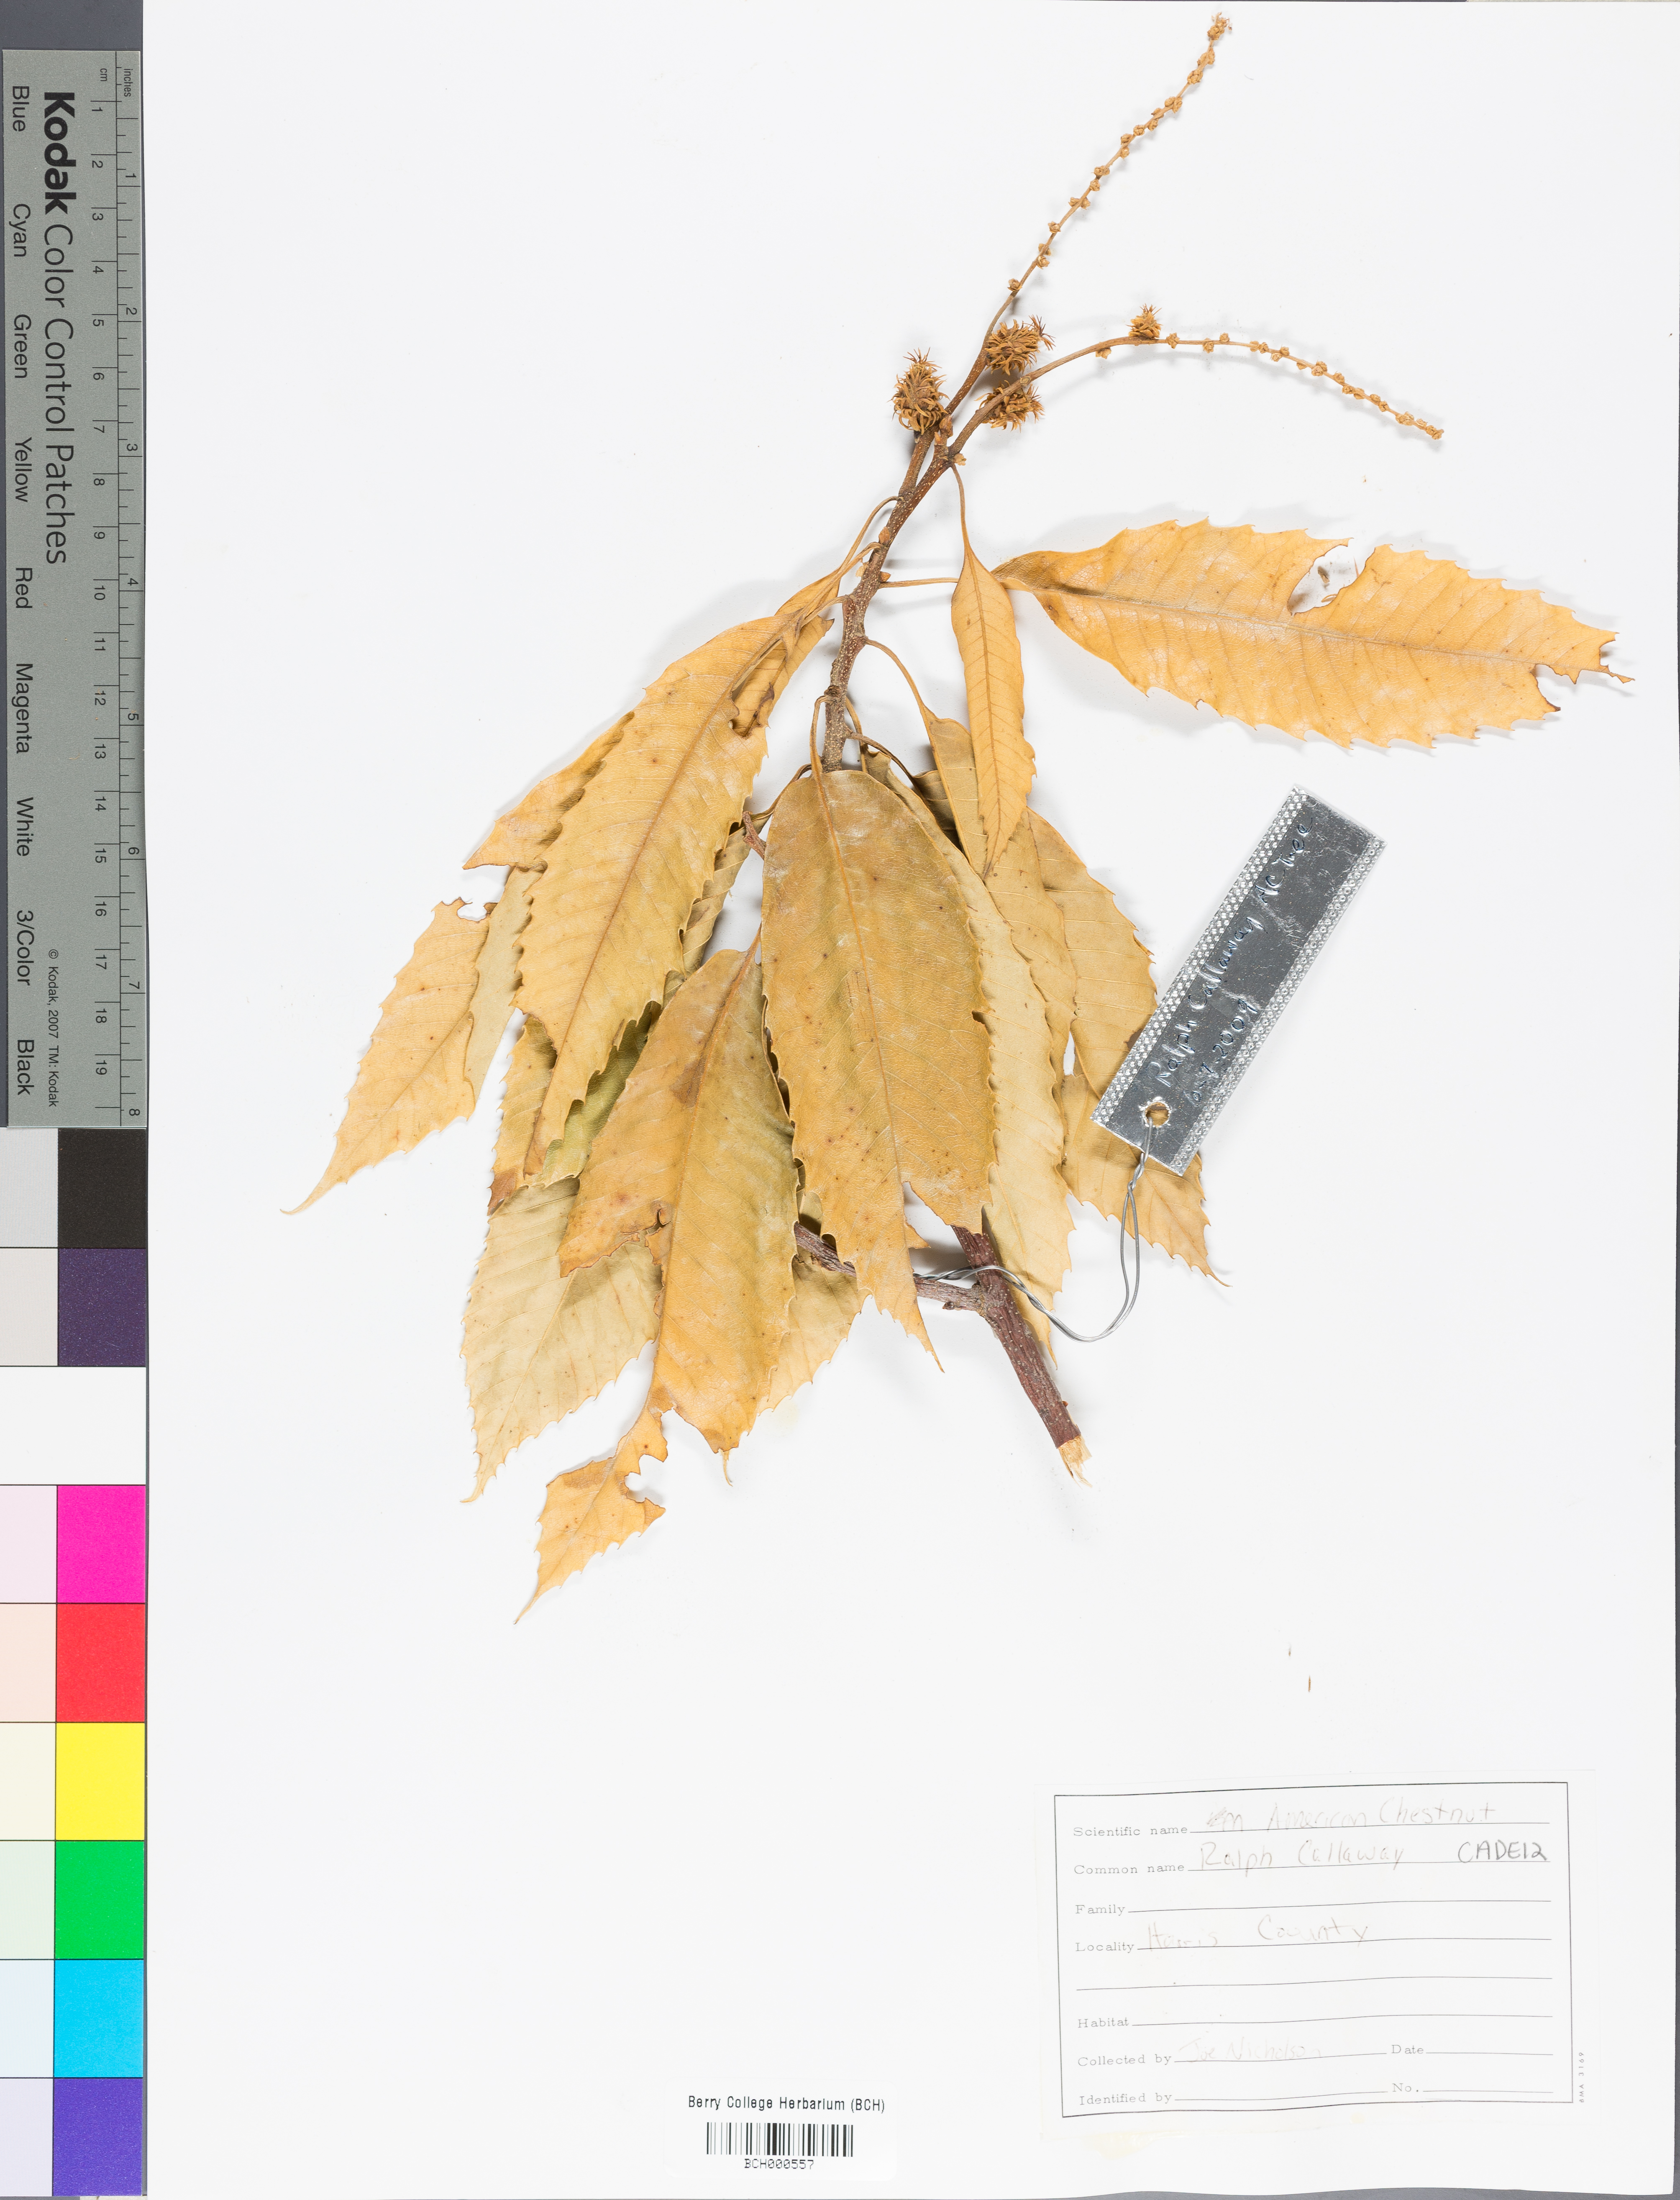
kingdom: Plantae
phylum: Tracheophyta
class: Magnoliopsida
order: Fagales
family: Fagaceae
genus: Castanea
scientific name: Castanea dentata
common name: American chestnut
